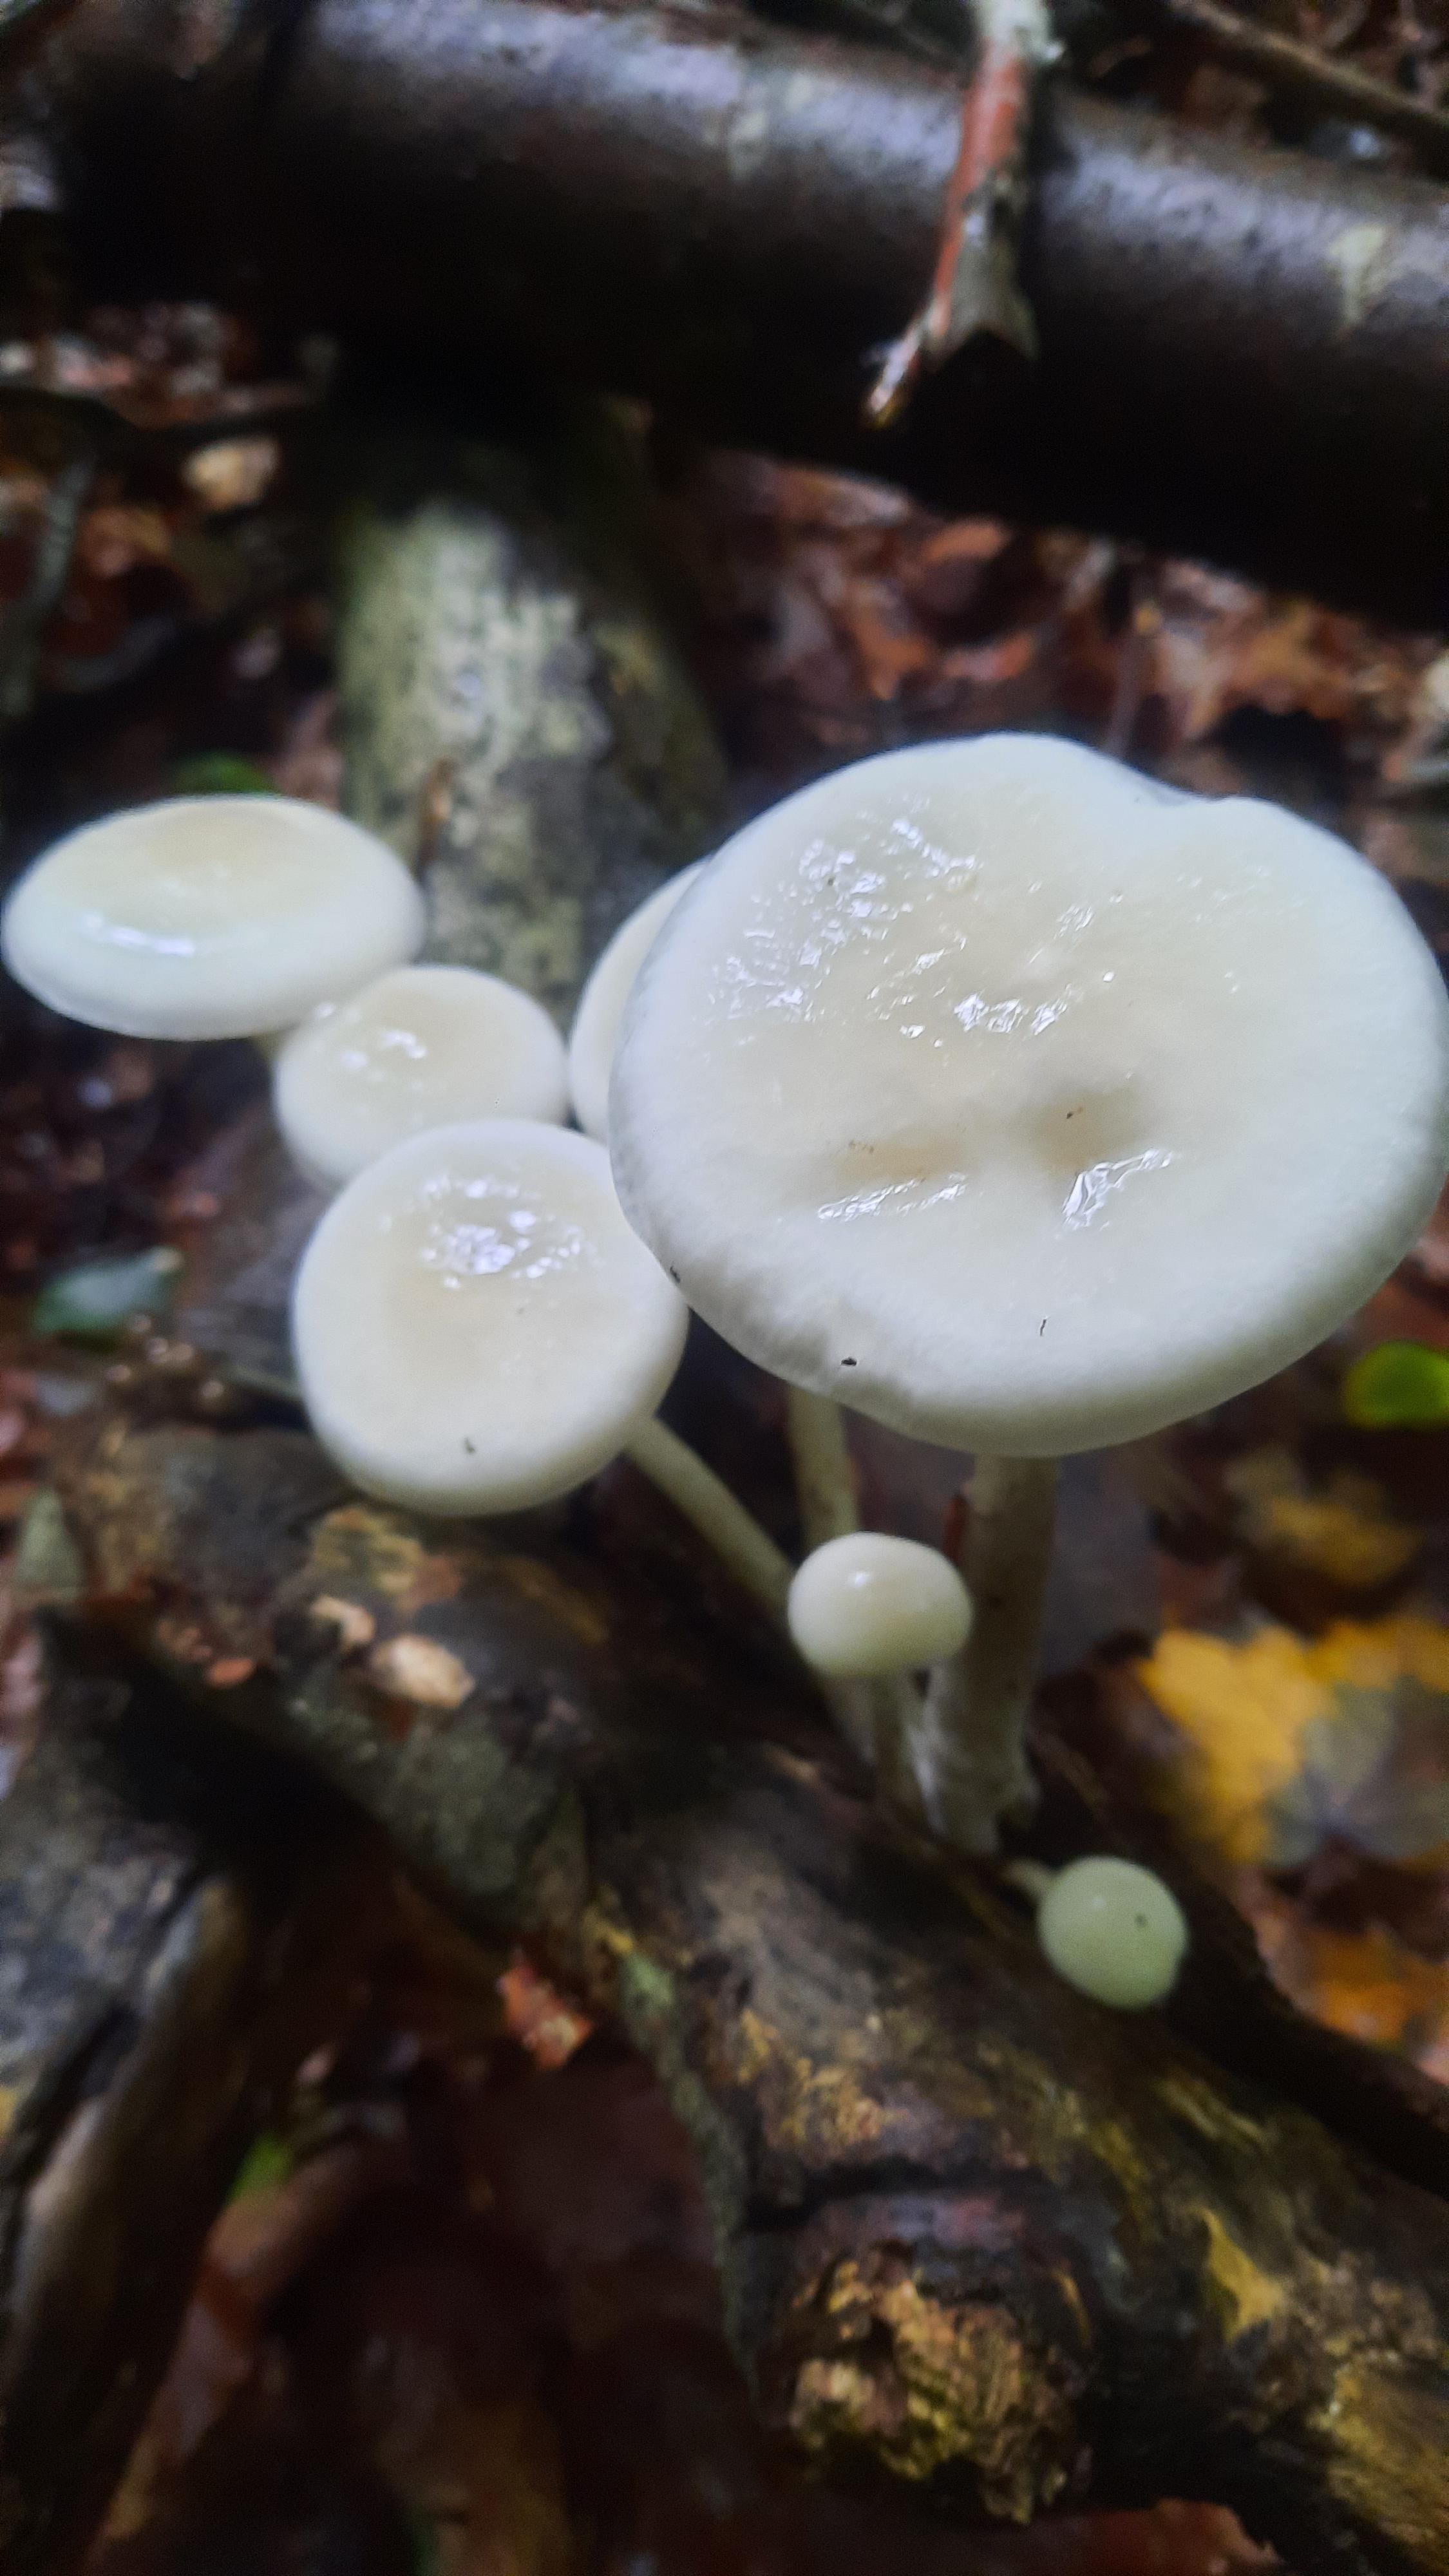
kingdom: Fungi
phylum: Basidiomycota
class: Agaricomycetes
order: Agaricales
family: Physalacriaceae
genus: Mucidula
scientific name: Mucidula mucida
